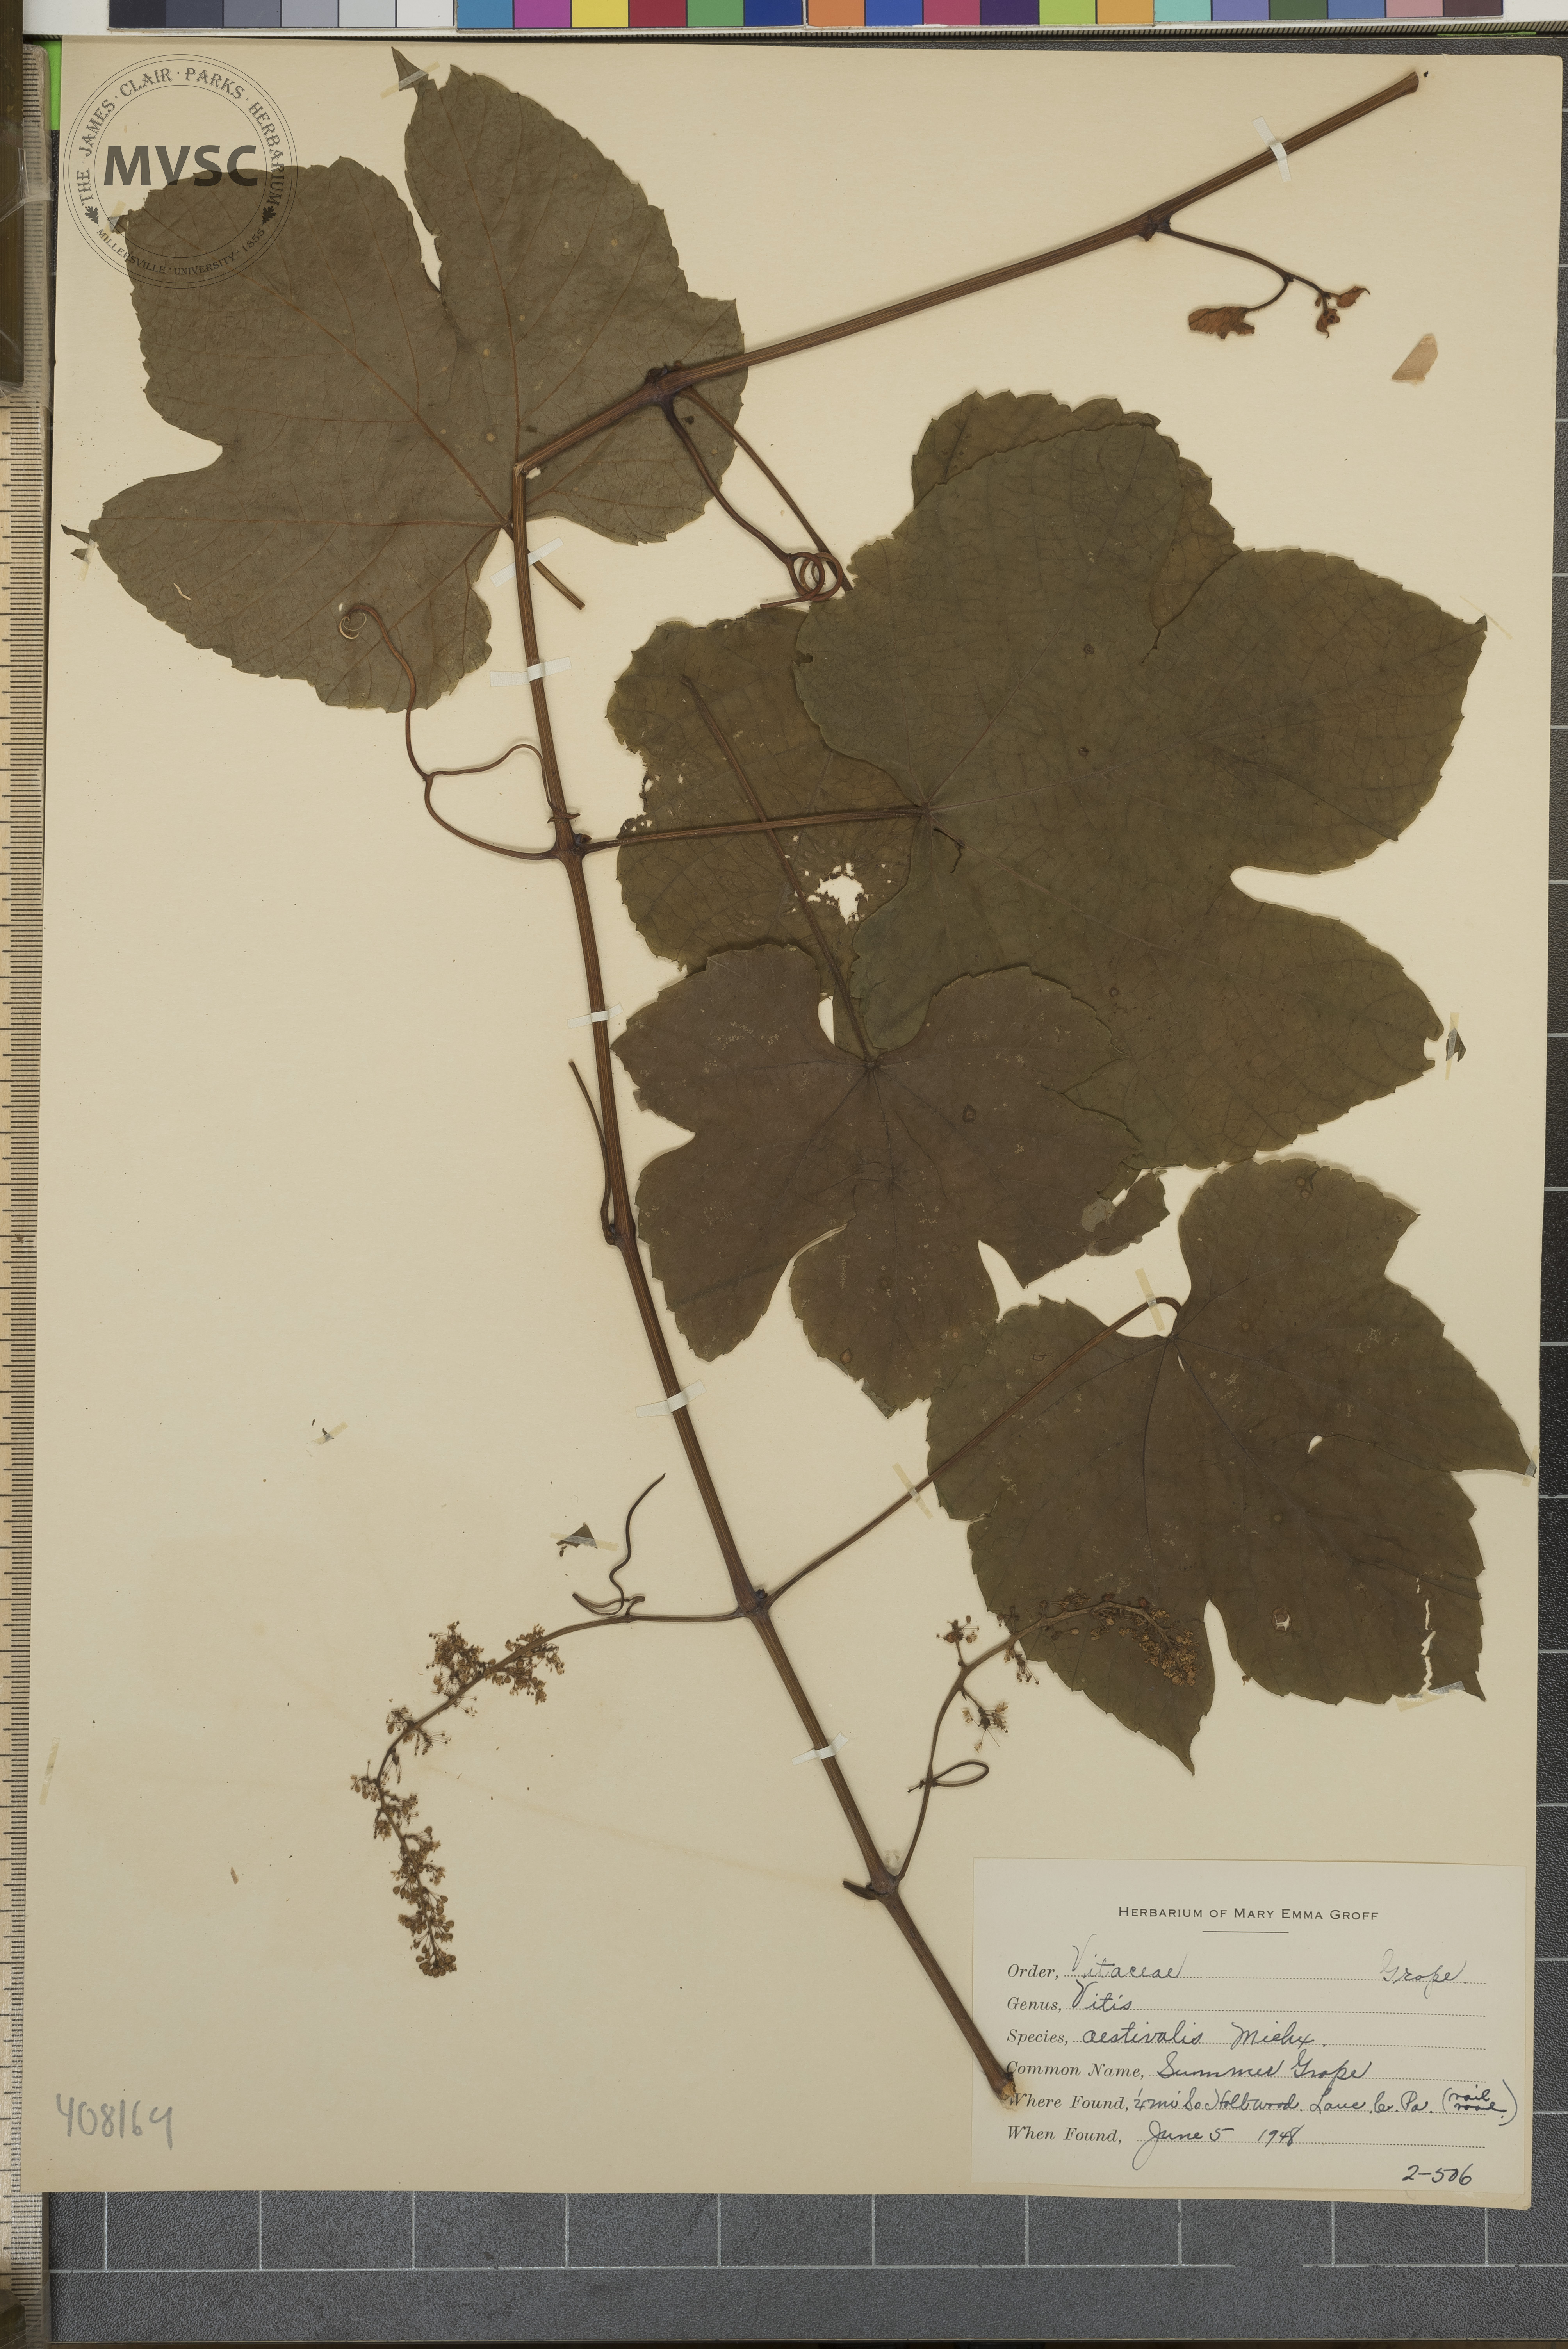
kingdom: Plantae
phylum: Tracheophyta
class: Magnoliopsida
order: Vitales
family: Vitaceae
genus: Vitis
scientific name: Vitis aestivalis
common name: Summer Grape
